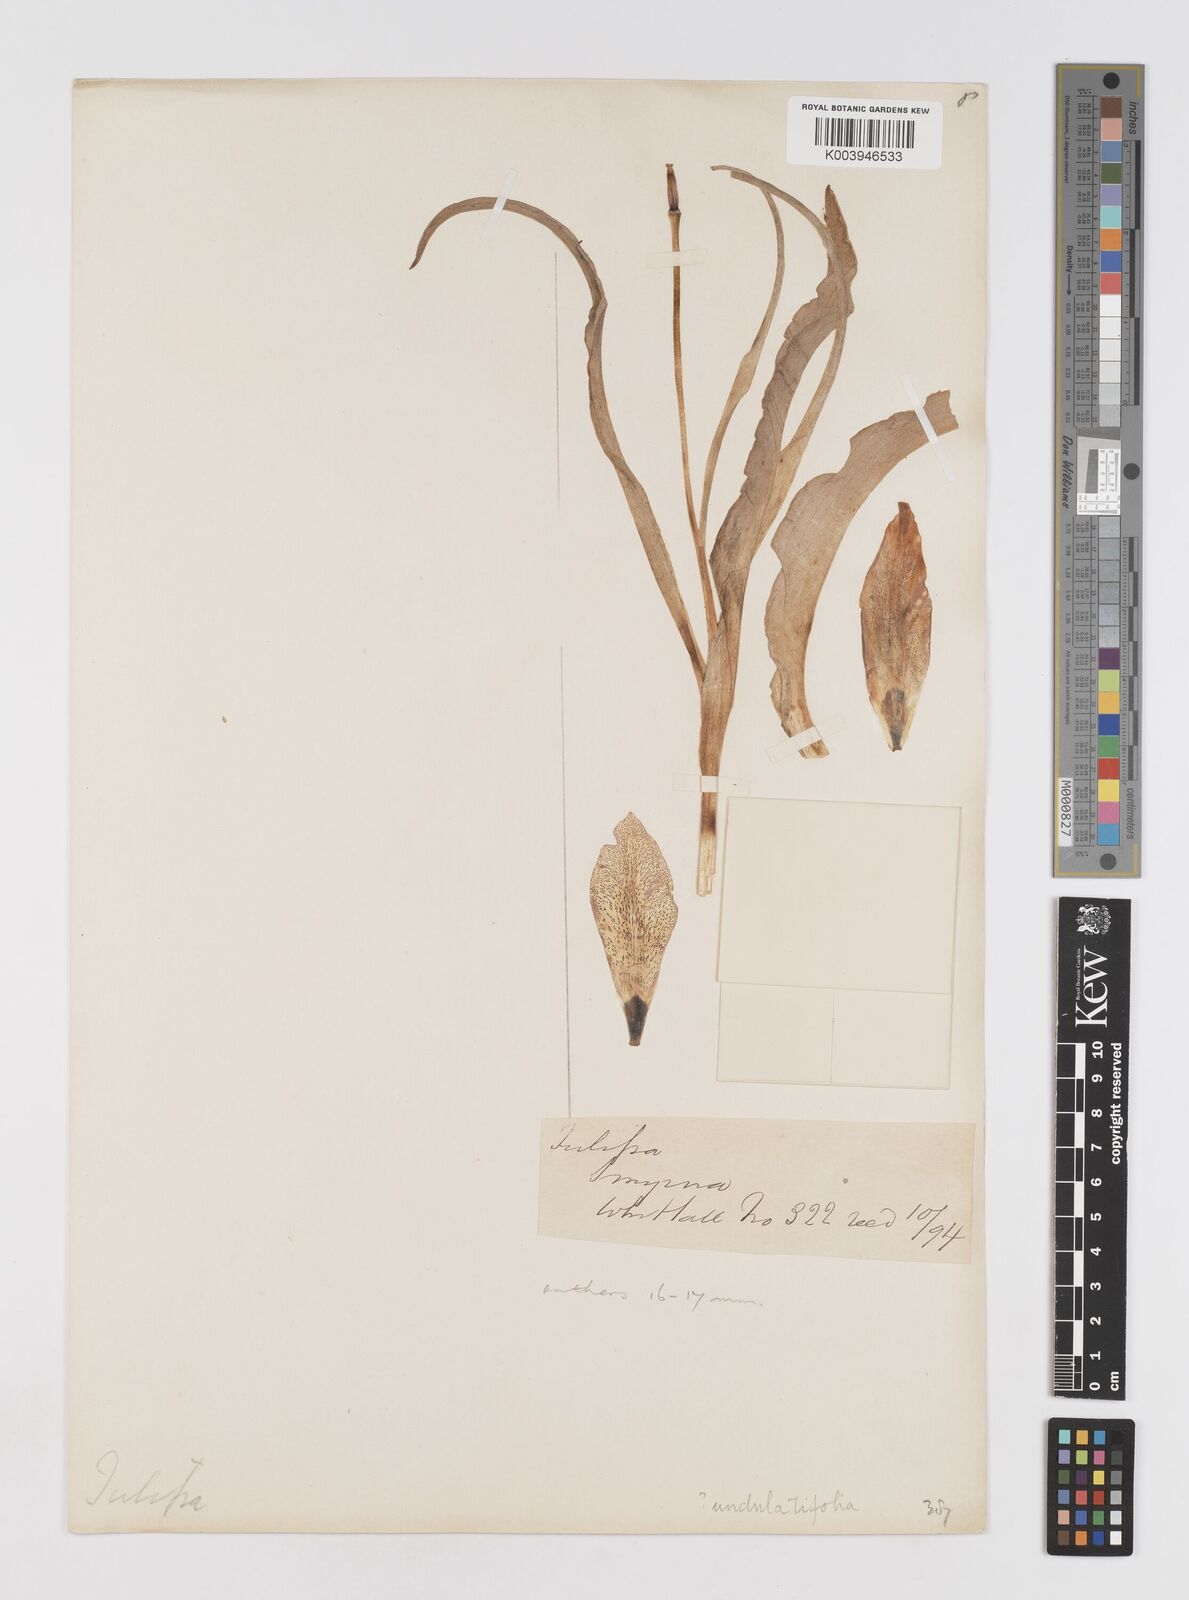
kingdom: Plantae
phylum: Tracheophyta
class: Liliopsida
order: Liliales
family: Liliaceae
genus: Tulipa
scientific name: Tulipa
